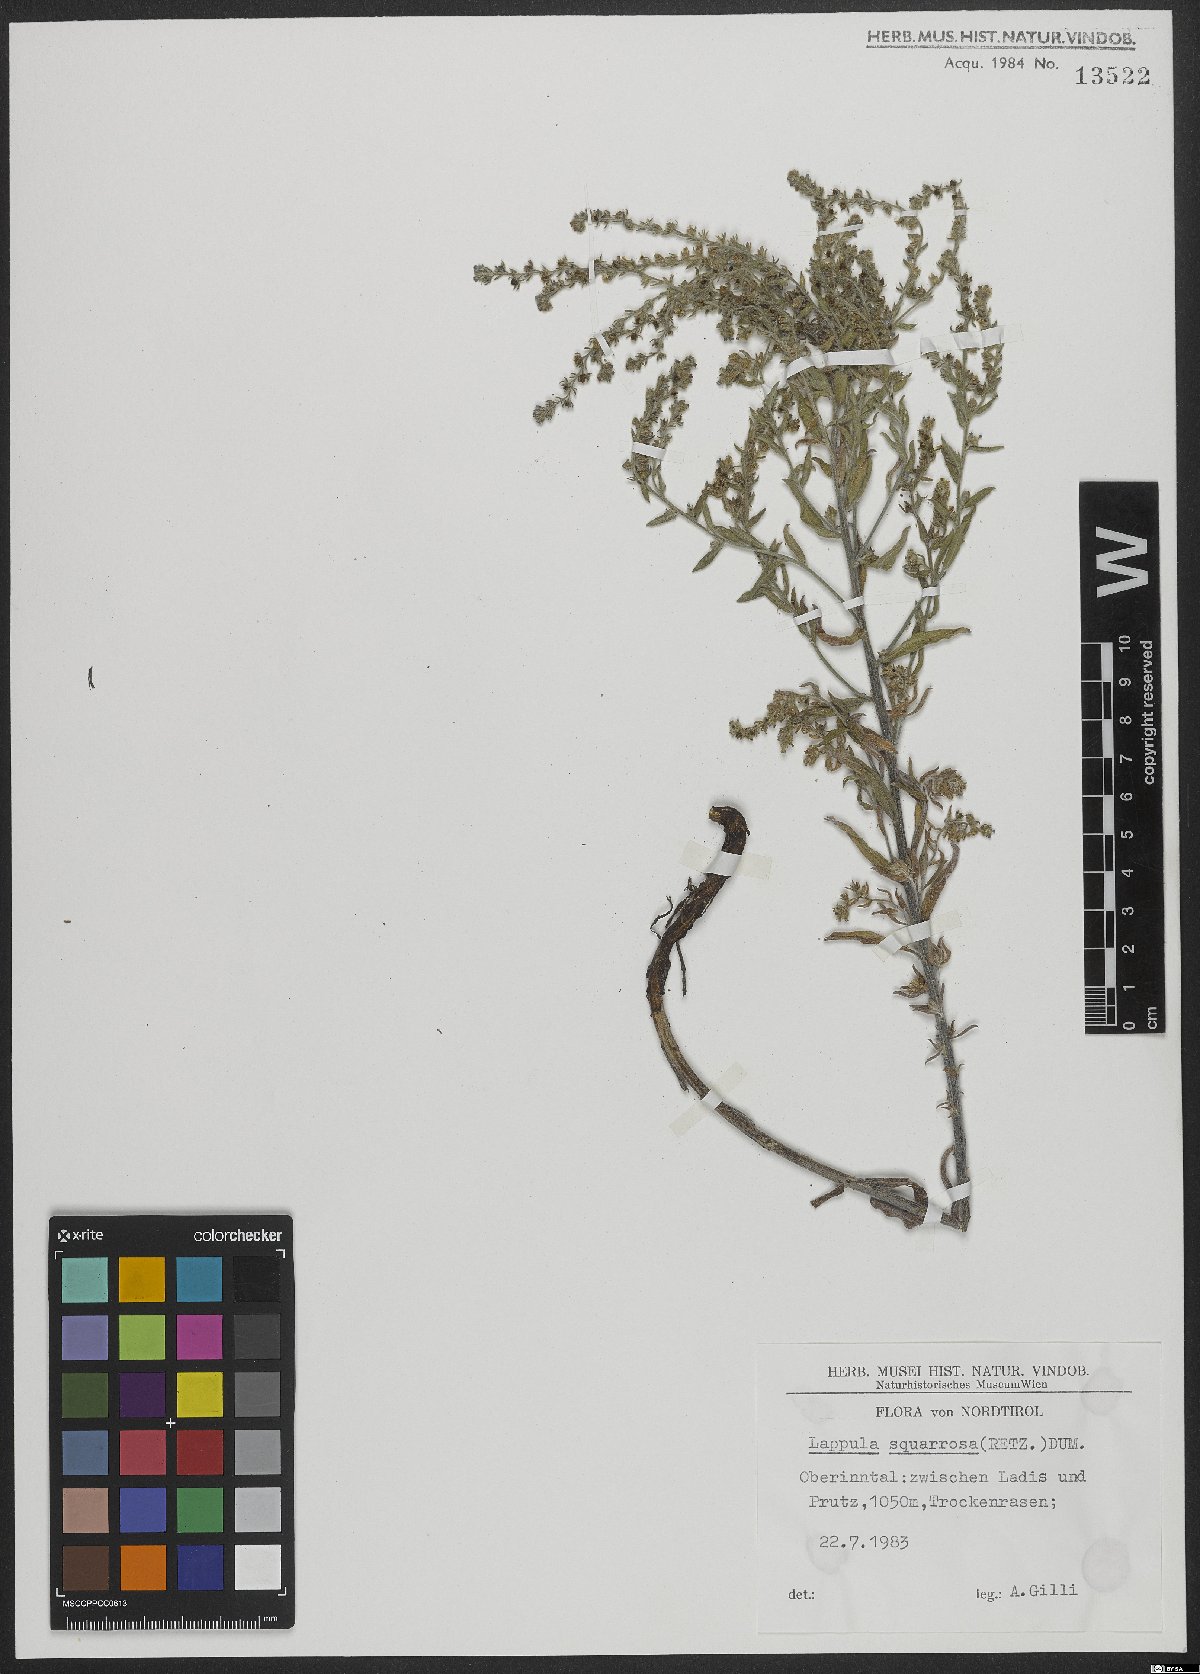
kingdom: Plantae
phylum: Tracheophyta
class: Magnoliopsida
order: Boraginales
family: Boraginaceae
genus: Lappula
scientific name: Lappula squarrosa
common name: European stickseed
